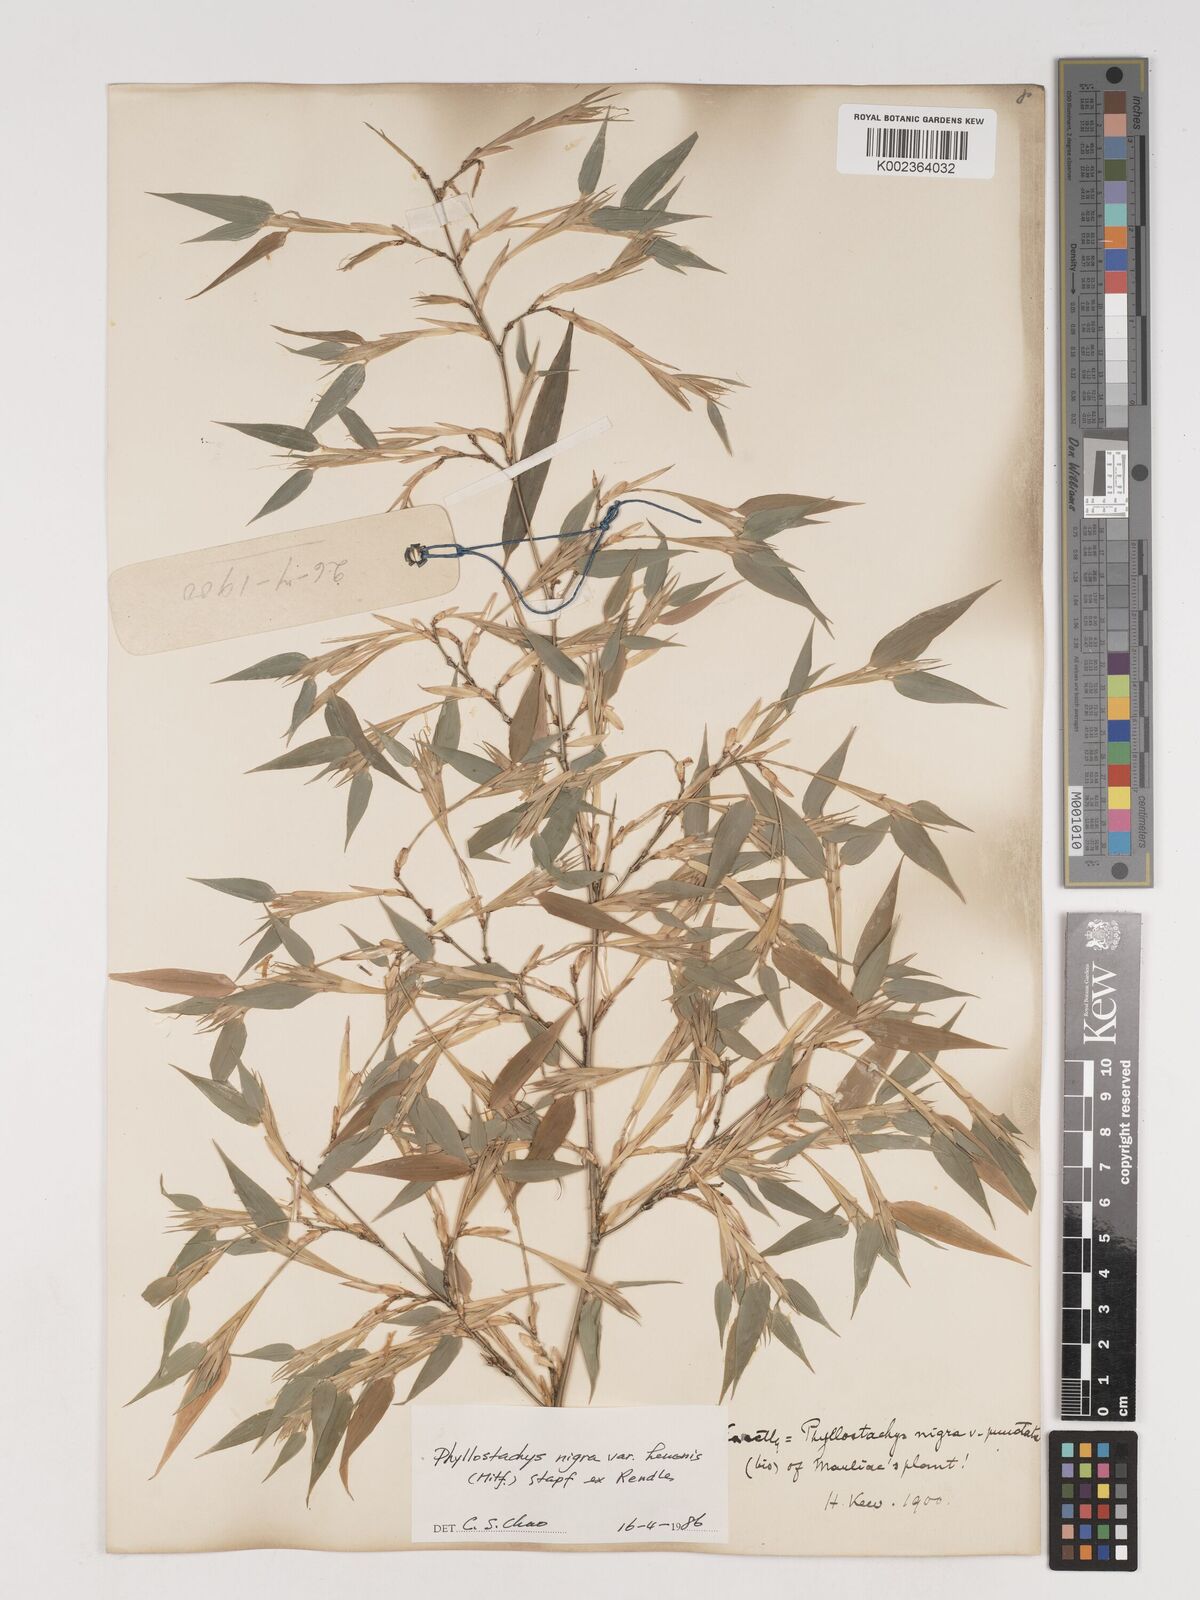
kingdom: Plantae
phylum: Tracheophyta
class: Liliopsida
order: Poales
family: Poaceae
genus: Phyllostachys
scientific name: Phyllostachys nigra
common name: Black bamboo
